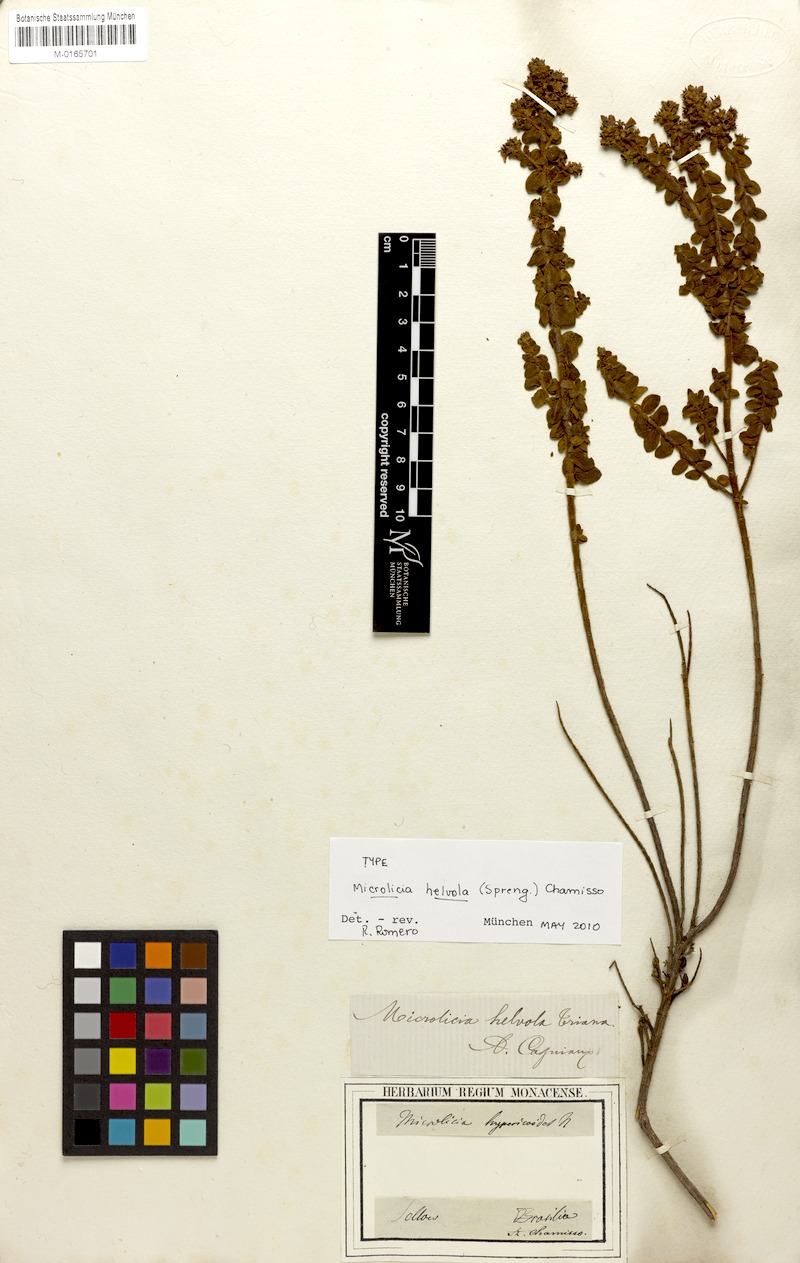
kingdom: Plantae
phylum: Tracheophyta
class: Magnoliopsida
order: Myrtales
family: Melastomataceae
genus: Microlicia
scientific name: Microlicia helvola
